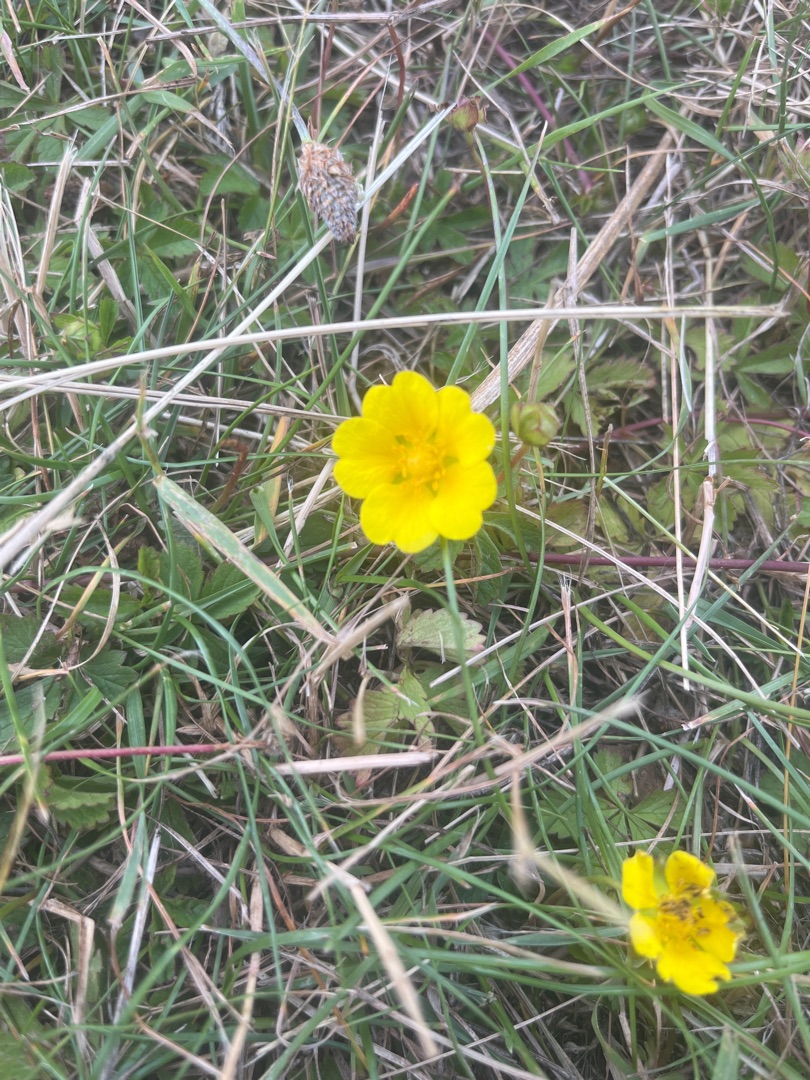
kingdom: Plantae
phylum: Tracheophyta
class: Magnoliopsida
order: Rosales
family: Rosaceae
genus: Potentilla
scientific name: Potentilla reptans
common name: Krybende potentil
